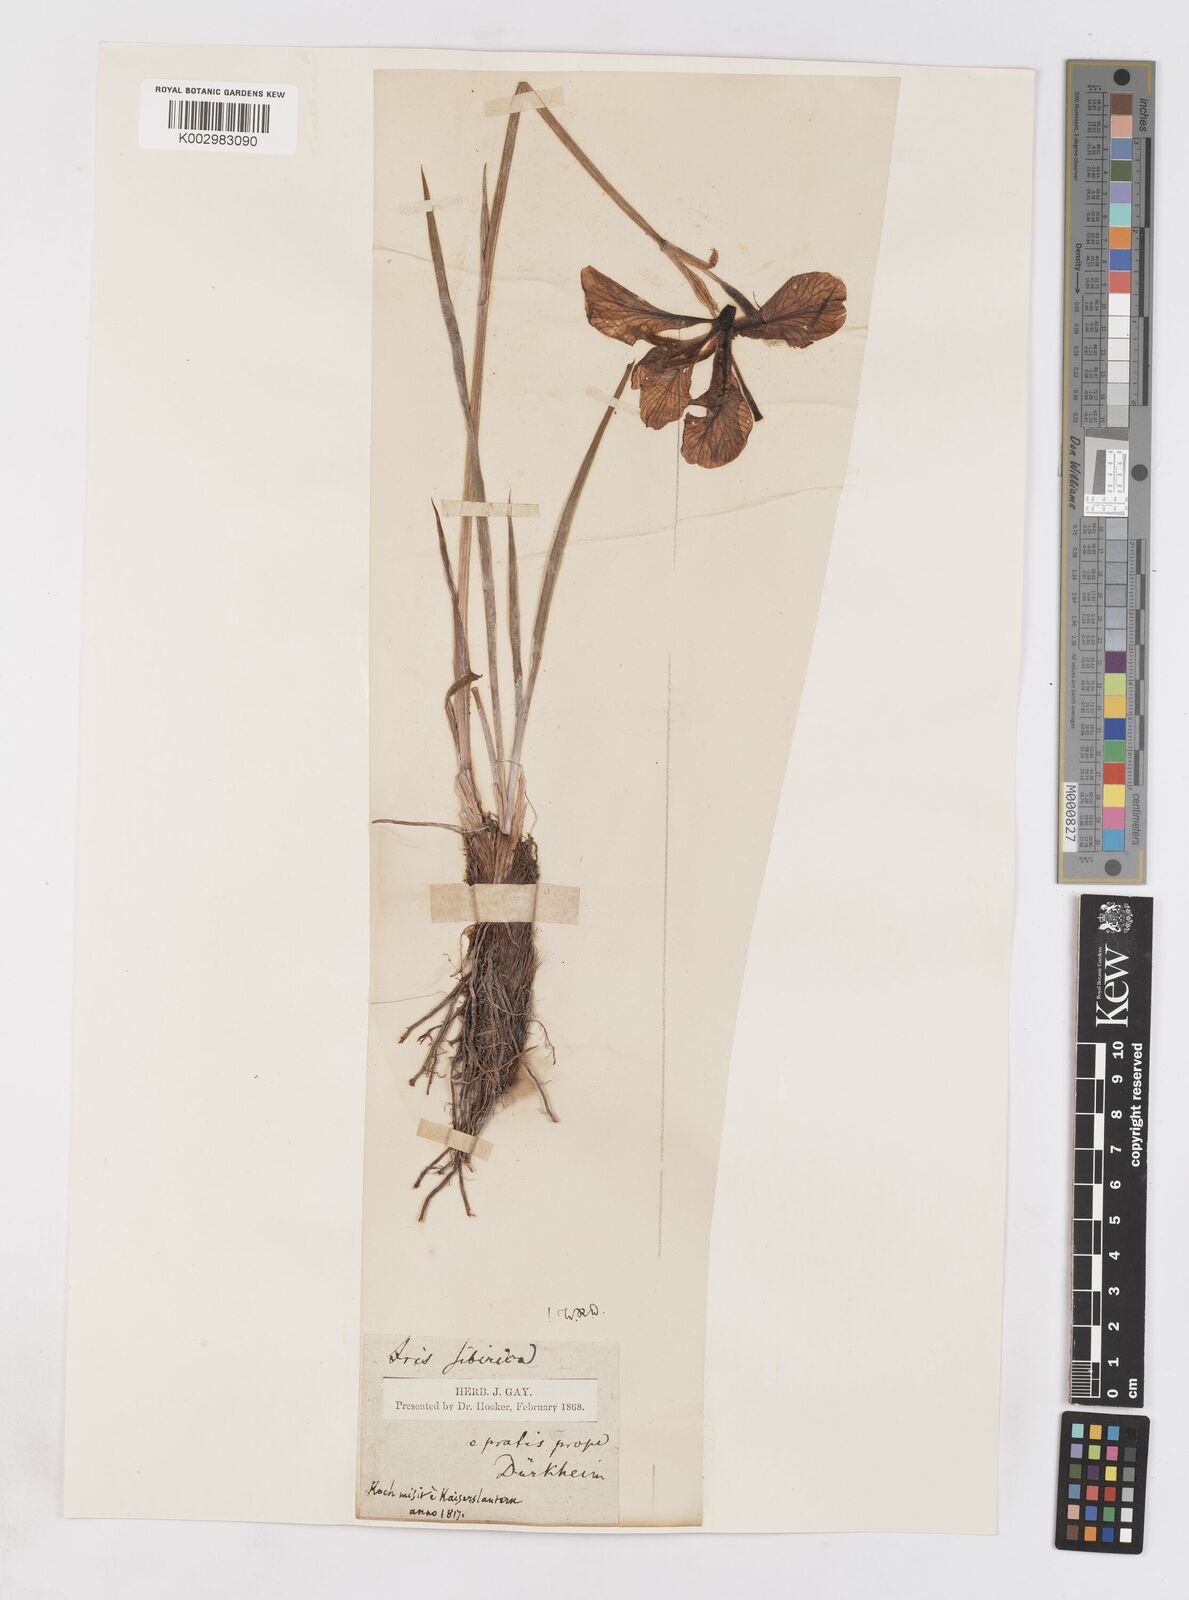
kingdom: Plantae
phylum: Tracheophyta
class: Liliopsida
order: Asparagales
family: Iridaceae
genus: Iris
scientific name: Iris sibirica
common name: Siberian iris
